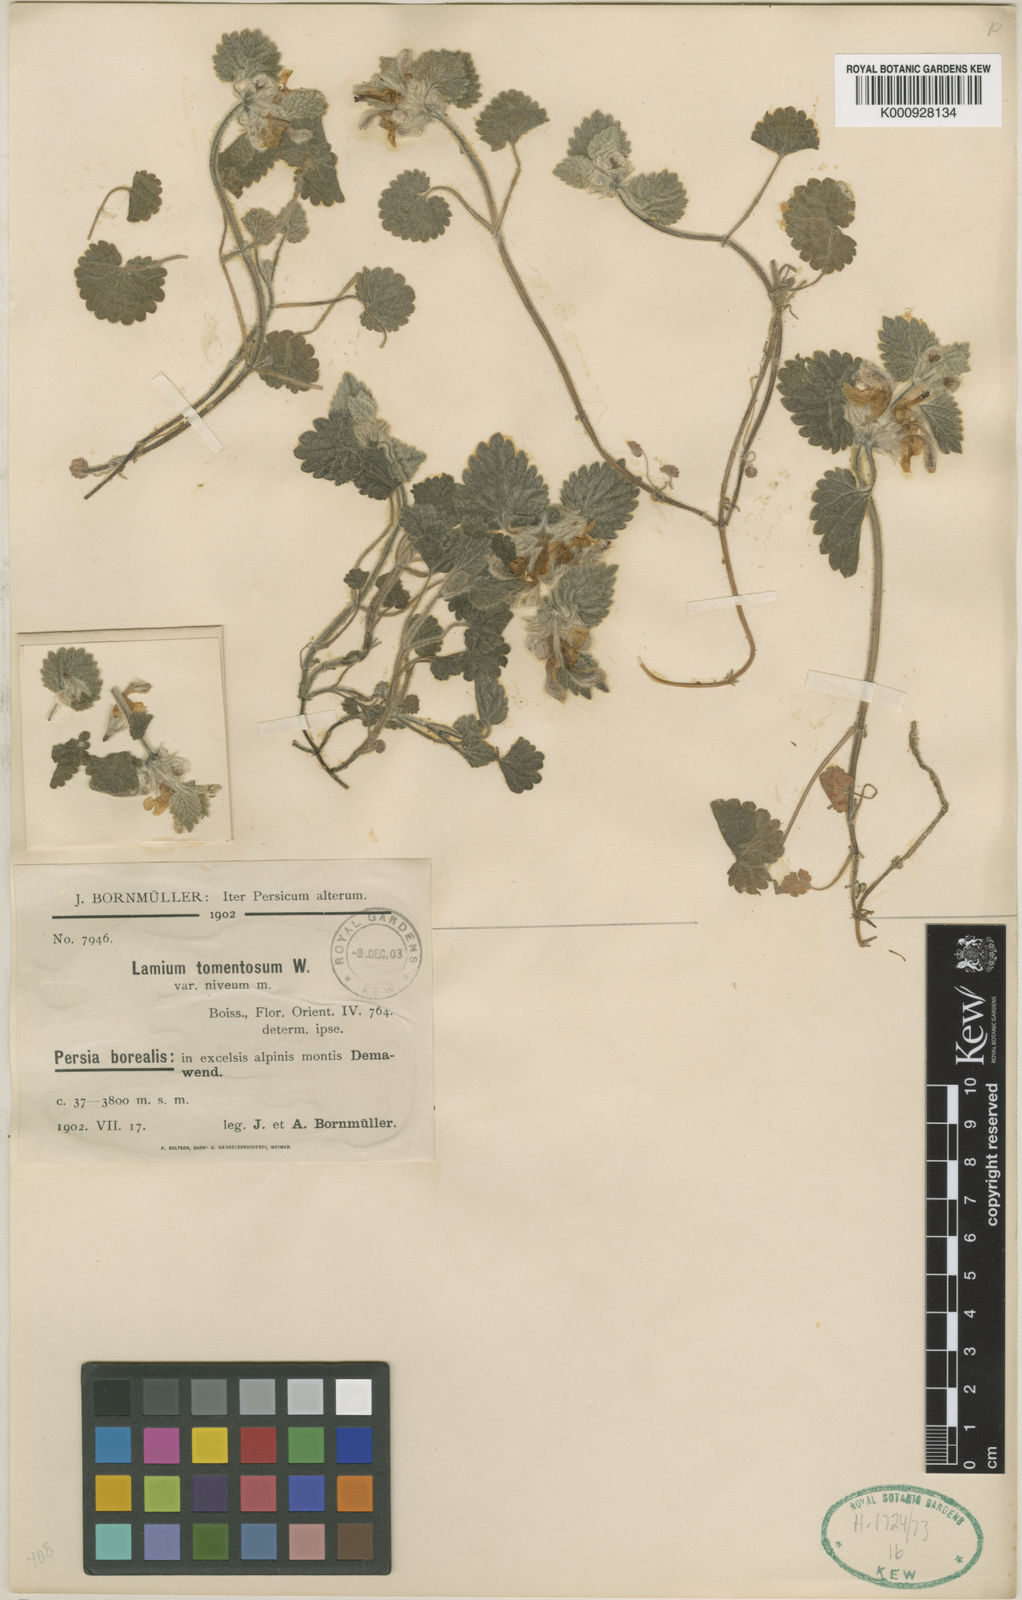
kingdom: Plantae
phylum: Tracheophyta
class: Magnoliopsida
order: Lamiales
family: Lamiaceae
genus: Lamium
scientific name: Lamium tomentosum
